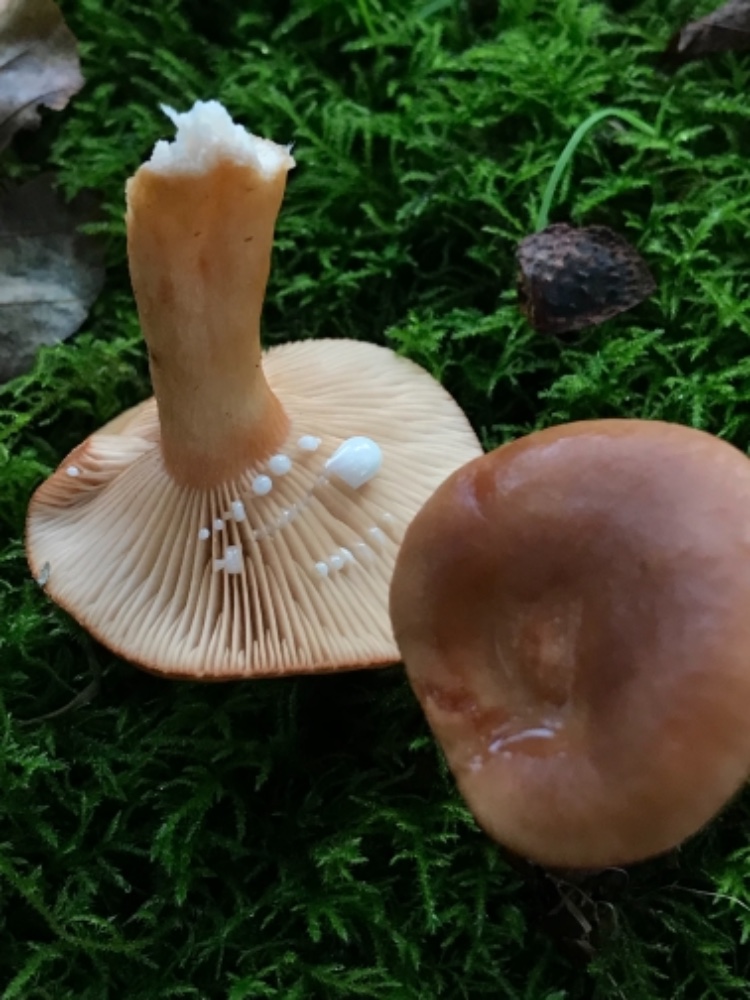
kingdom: Fungi
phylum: Basidiomycota
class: Agaricomycetes
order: Russulales
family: Russulaceae
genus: Lactarius
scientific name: Lactarius subdulcis
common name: sødlig mælkehat
